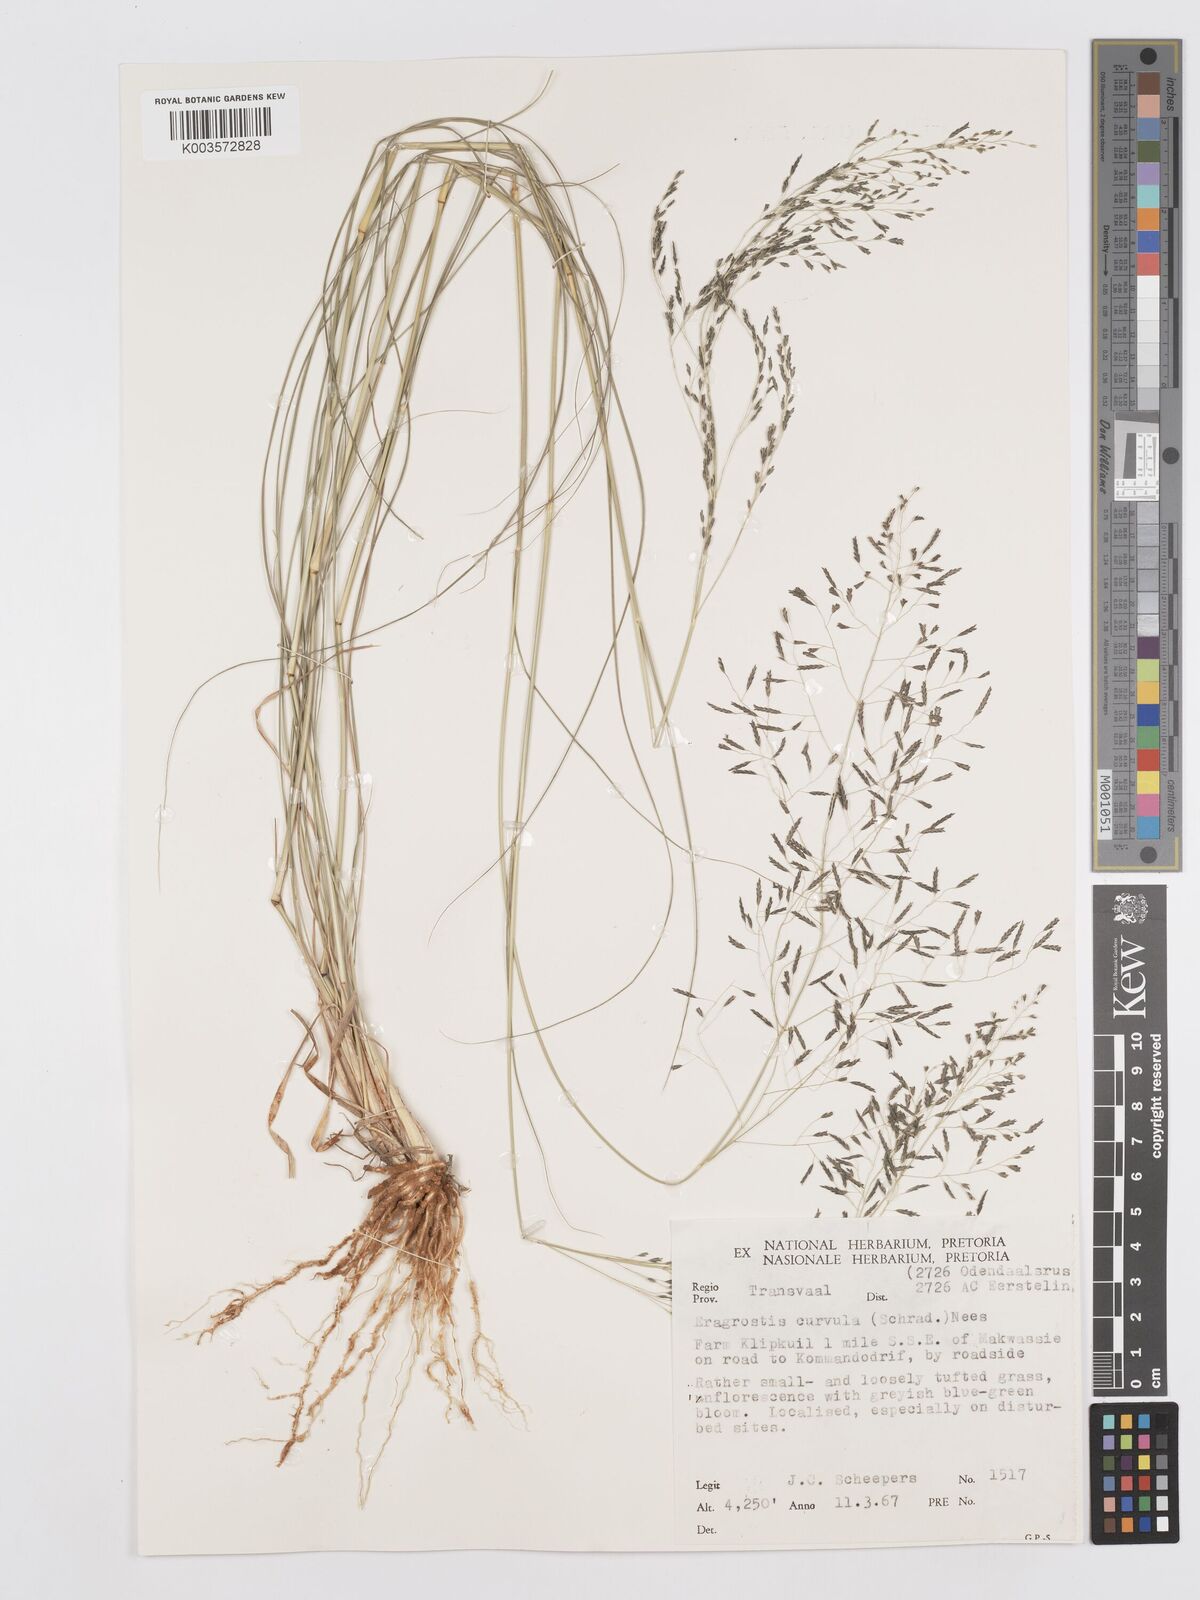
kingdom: Plantae
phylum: Tracheophyta
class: Liliopsida
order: Poales
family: Poaceae
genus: Eragrostis
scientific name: Eragrostis curvula
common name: African love-grass
